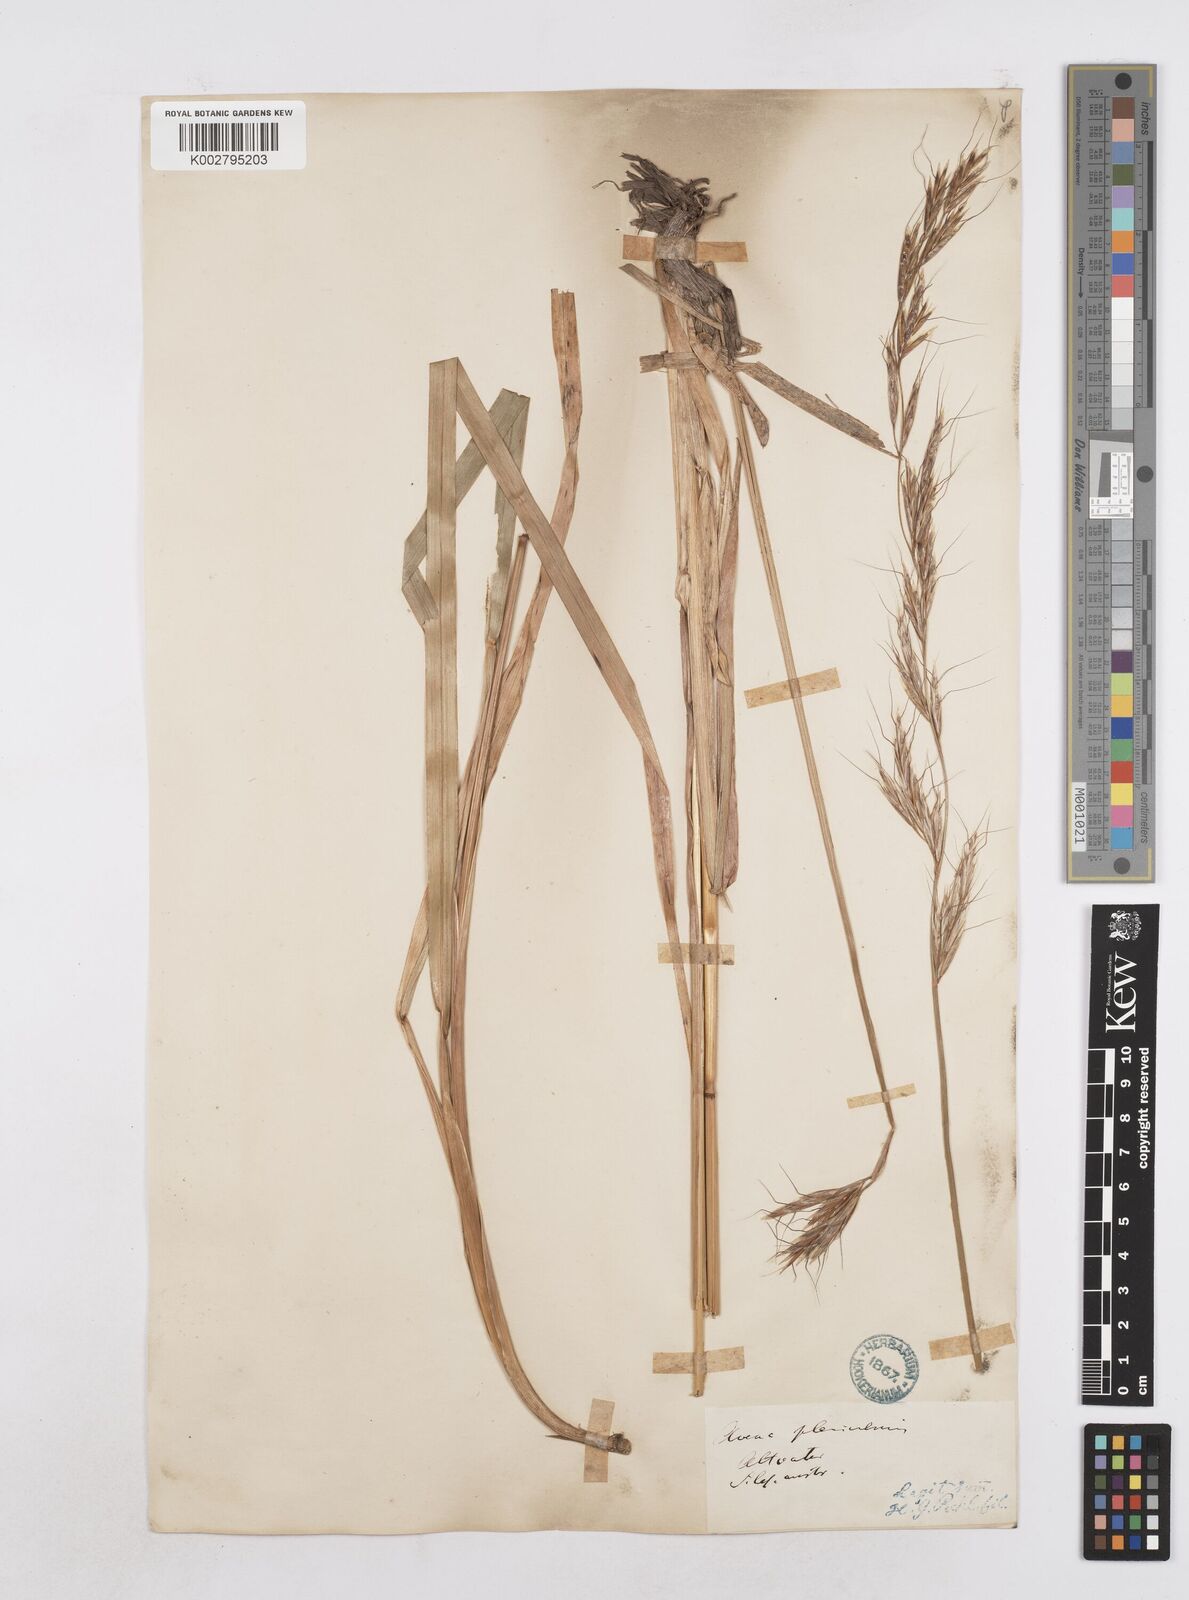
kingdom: Plantae
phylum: Tracheophyta
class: Liliopsida
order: Poales
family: Poaceae
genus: Helictochloa
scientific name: Helictochloa planiculmis
